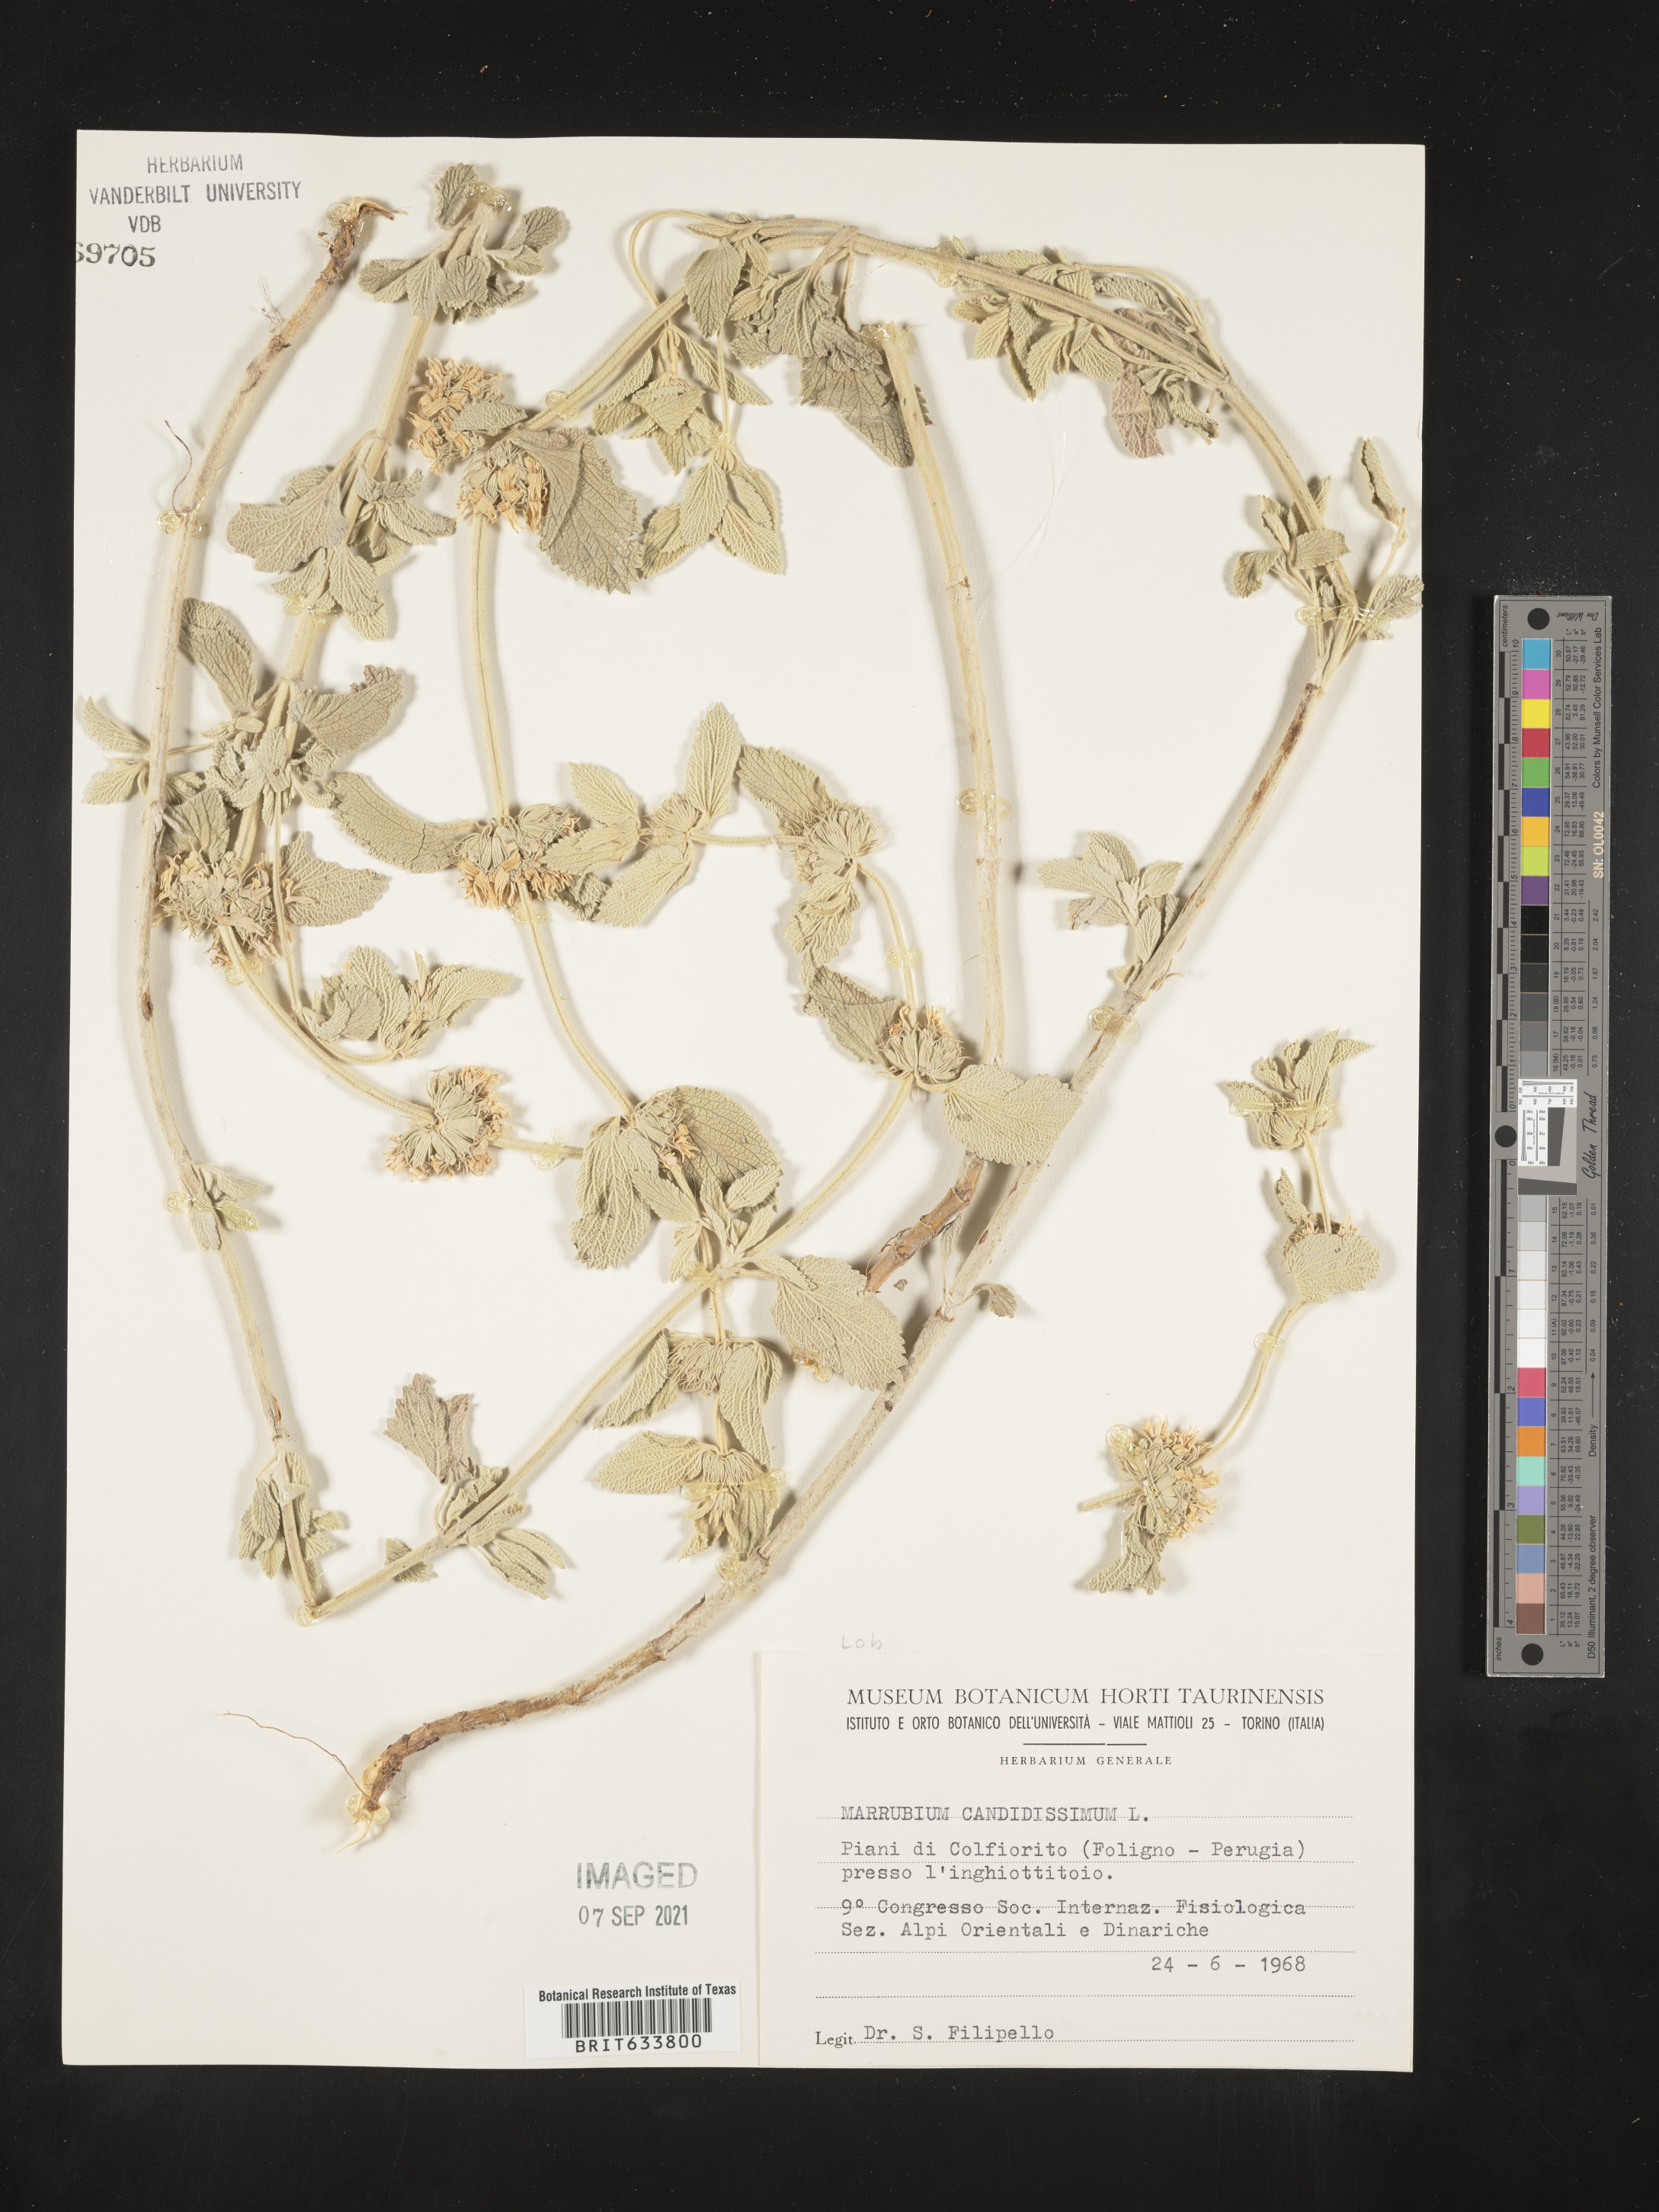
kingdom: Plantae
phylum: Tracheophyta
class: Magnoliopsida
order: Lamiales
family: Lamiaceae
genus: Marrubium
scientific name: Marrubium
